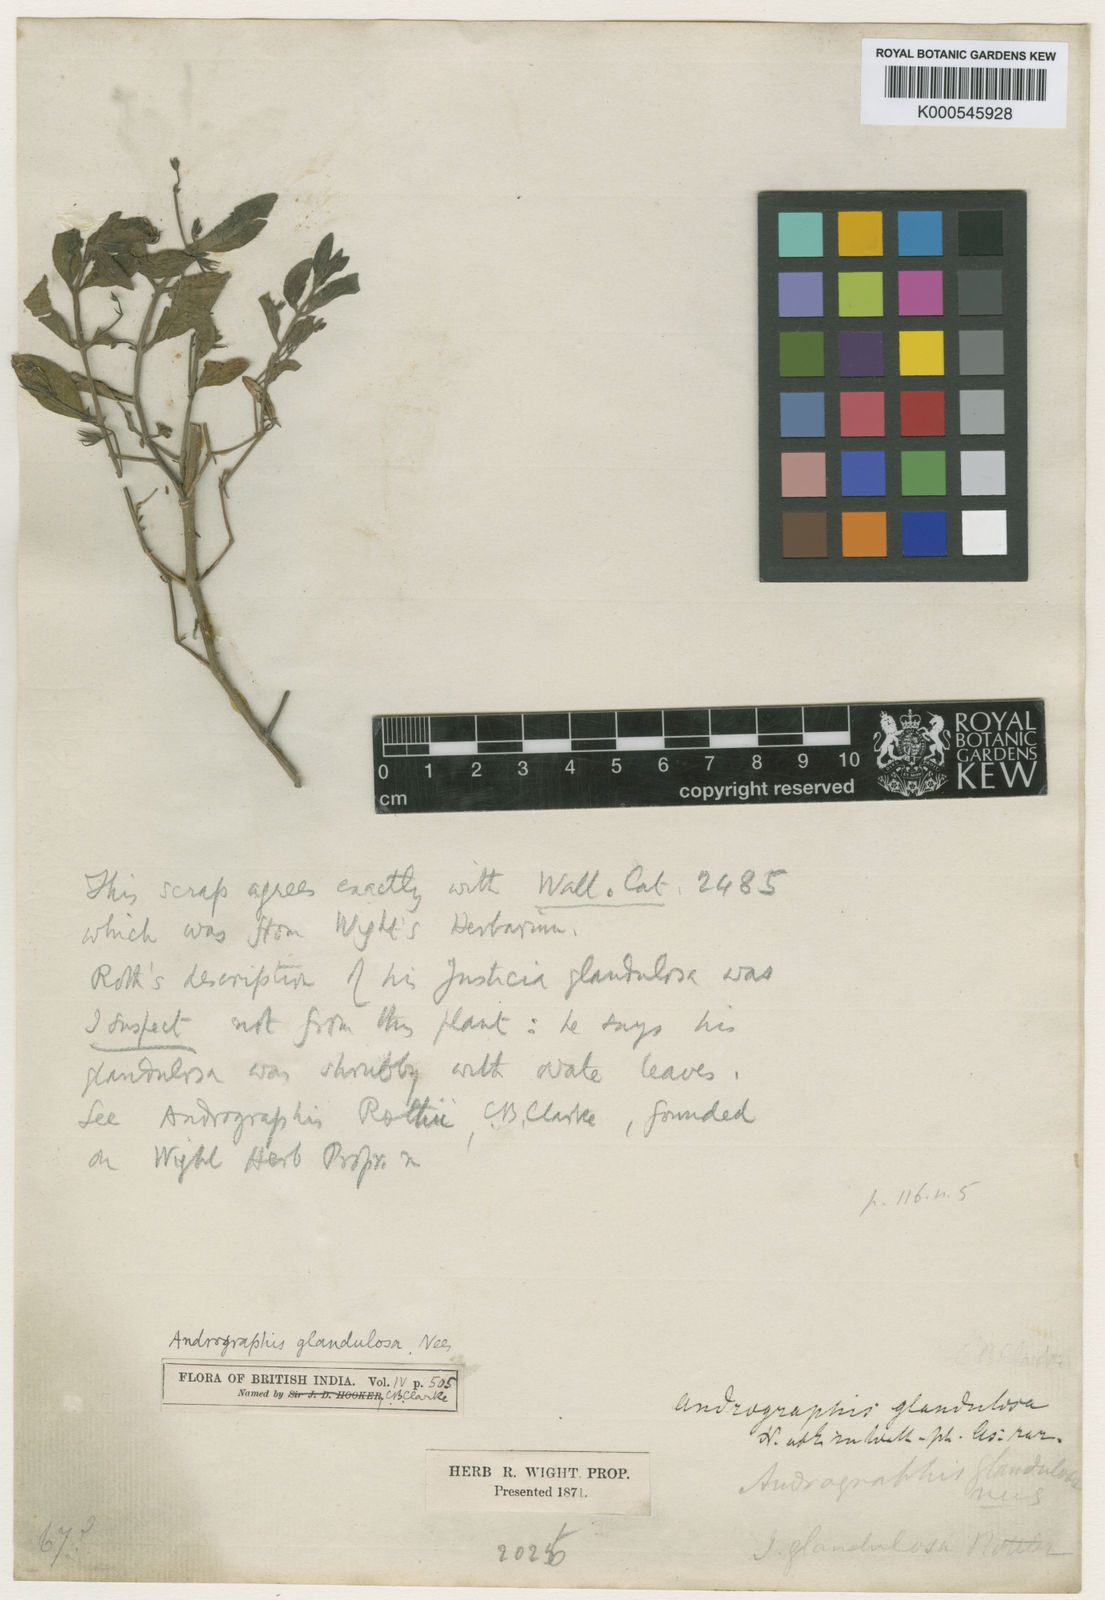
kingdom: Plantae
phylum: Tracheophyta
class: Magnoliopsida
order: Lamiales
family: Acanthaceae
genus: Andrographis
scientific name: Andrographis glandulosa
